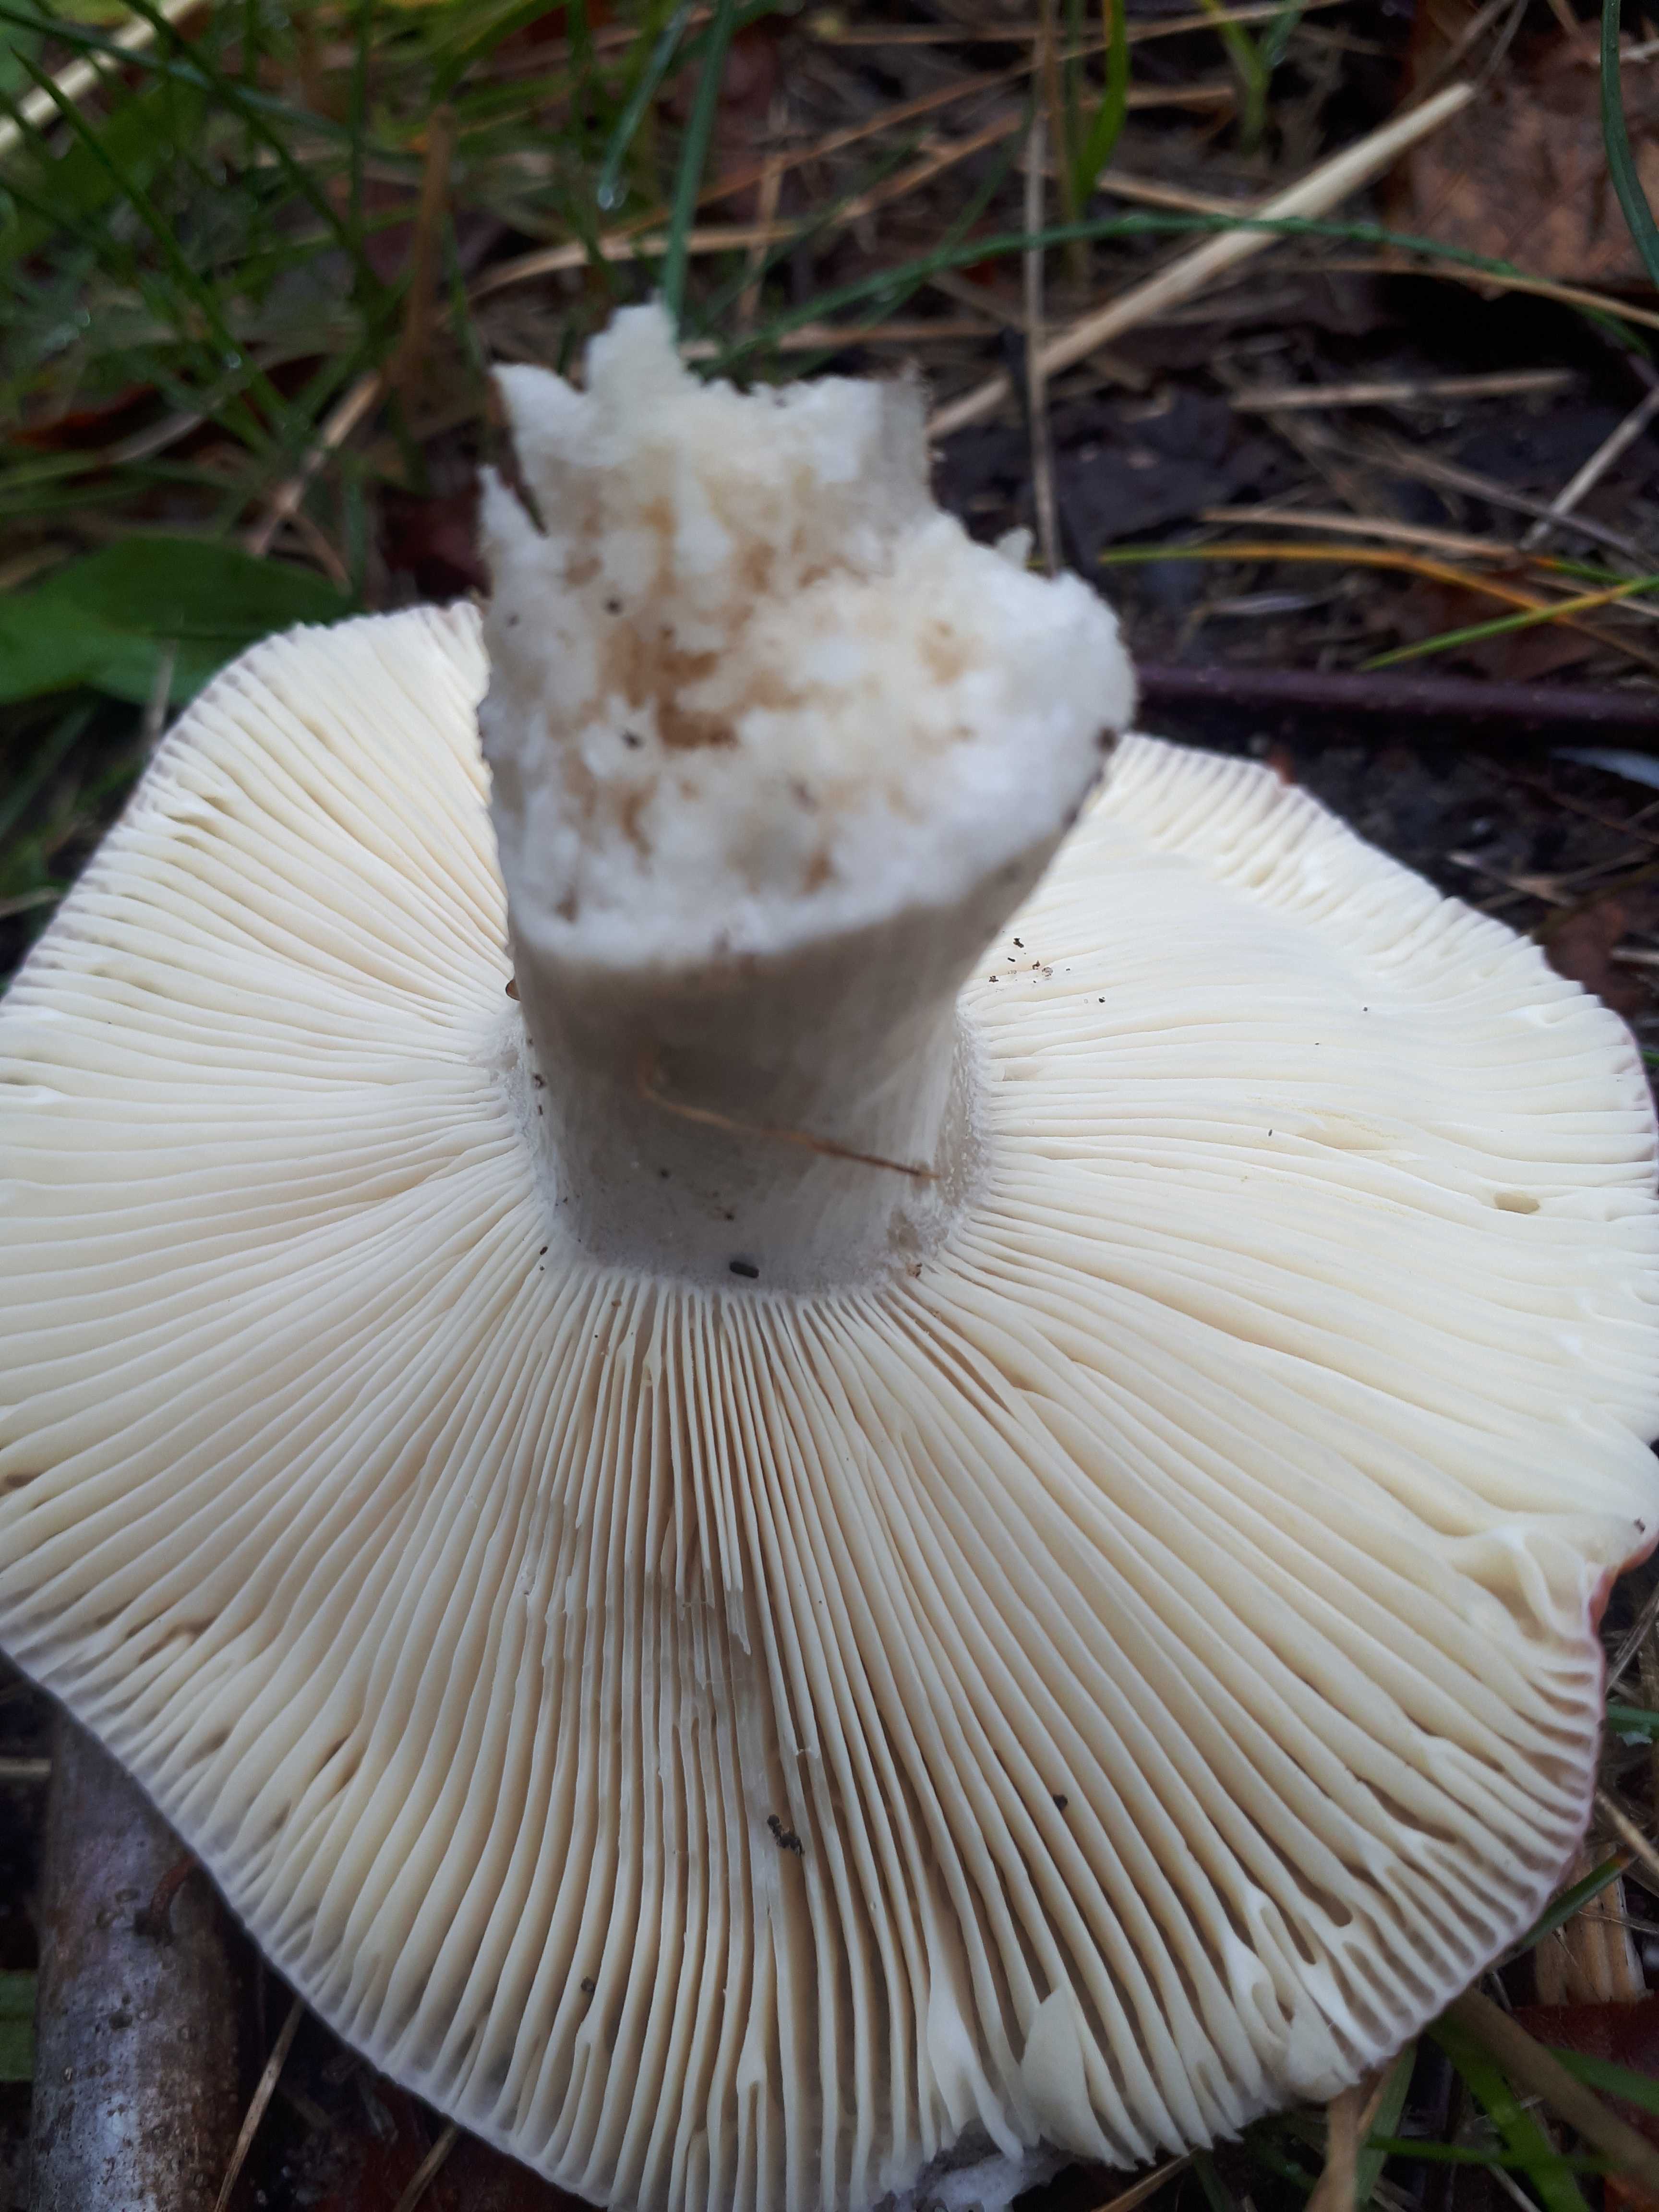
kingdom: Fungi
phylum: Basidiomycota
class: Agaricomycetes
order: Russulales
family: Russulaceae
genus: Russula
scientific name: Russula depallens
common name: falmende skørhat
